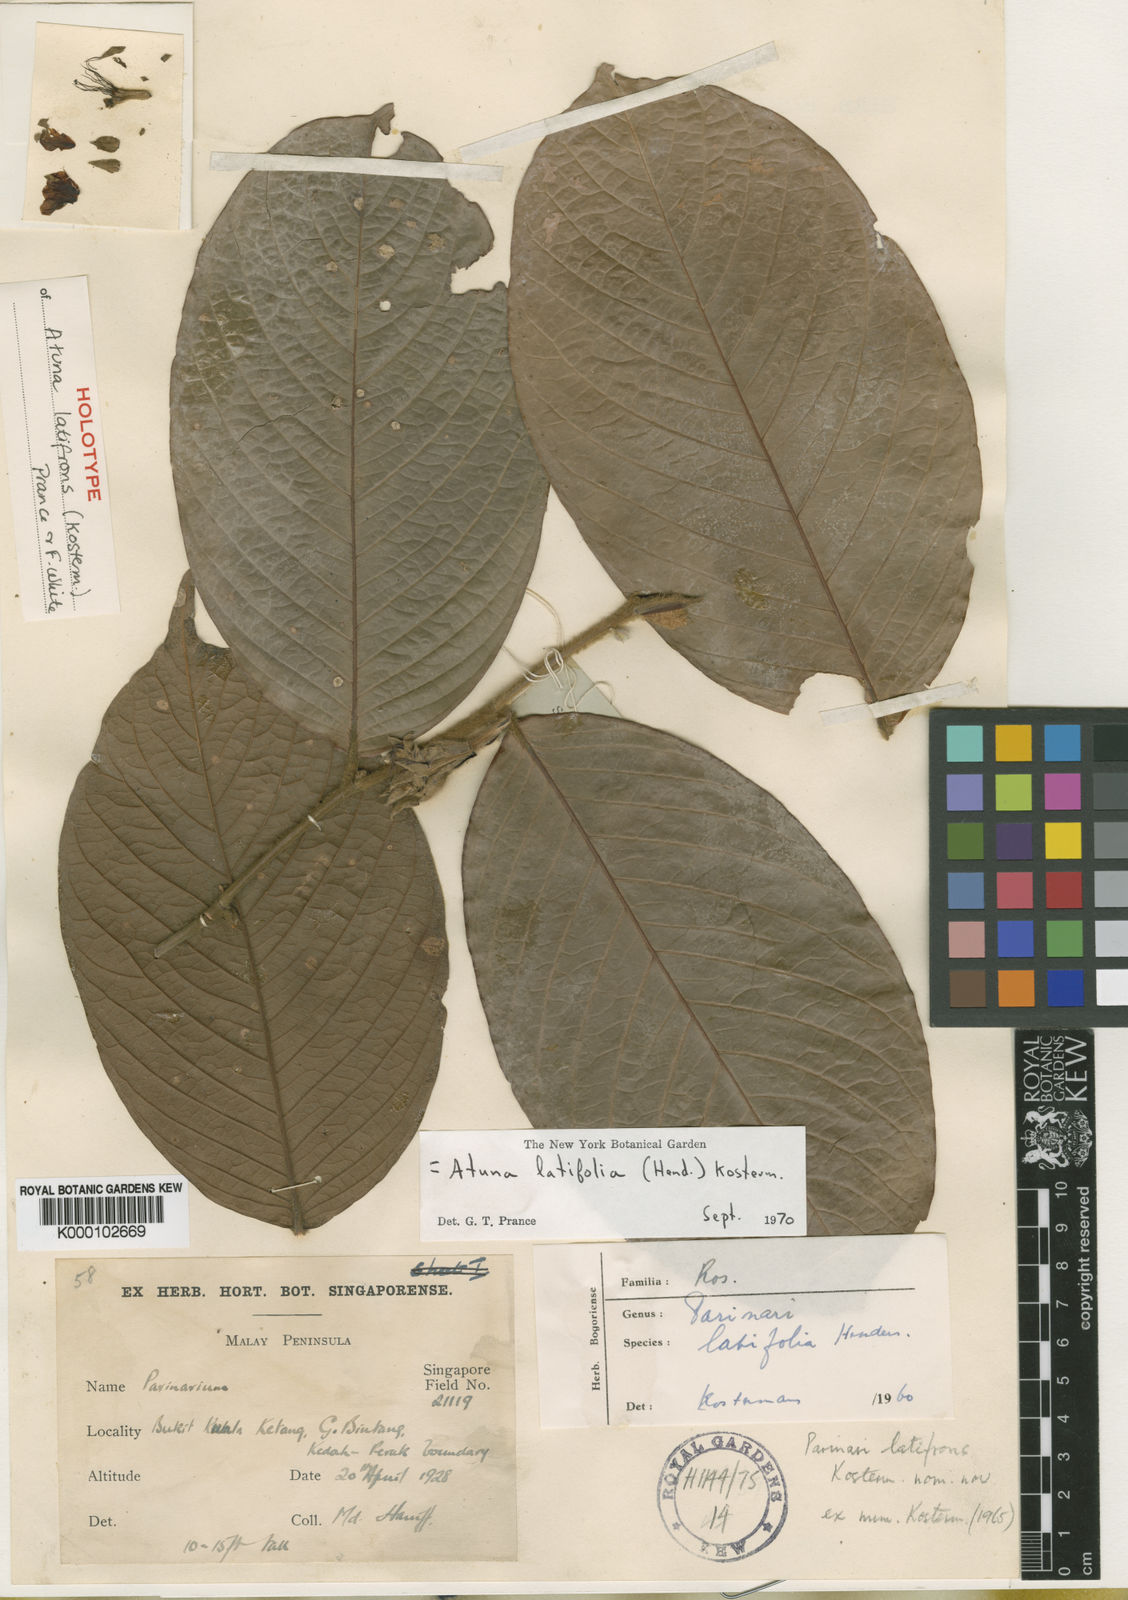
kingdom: Plantae
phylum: Tracheophyta
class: Magnoliopsida
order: Malpighiales
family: Chrysobalanaceae
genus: Atuna
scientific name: Atuna latifrons
